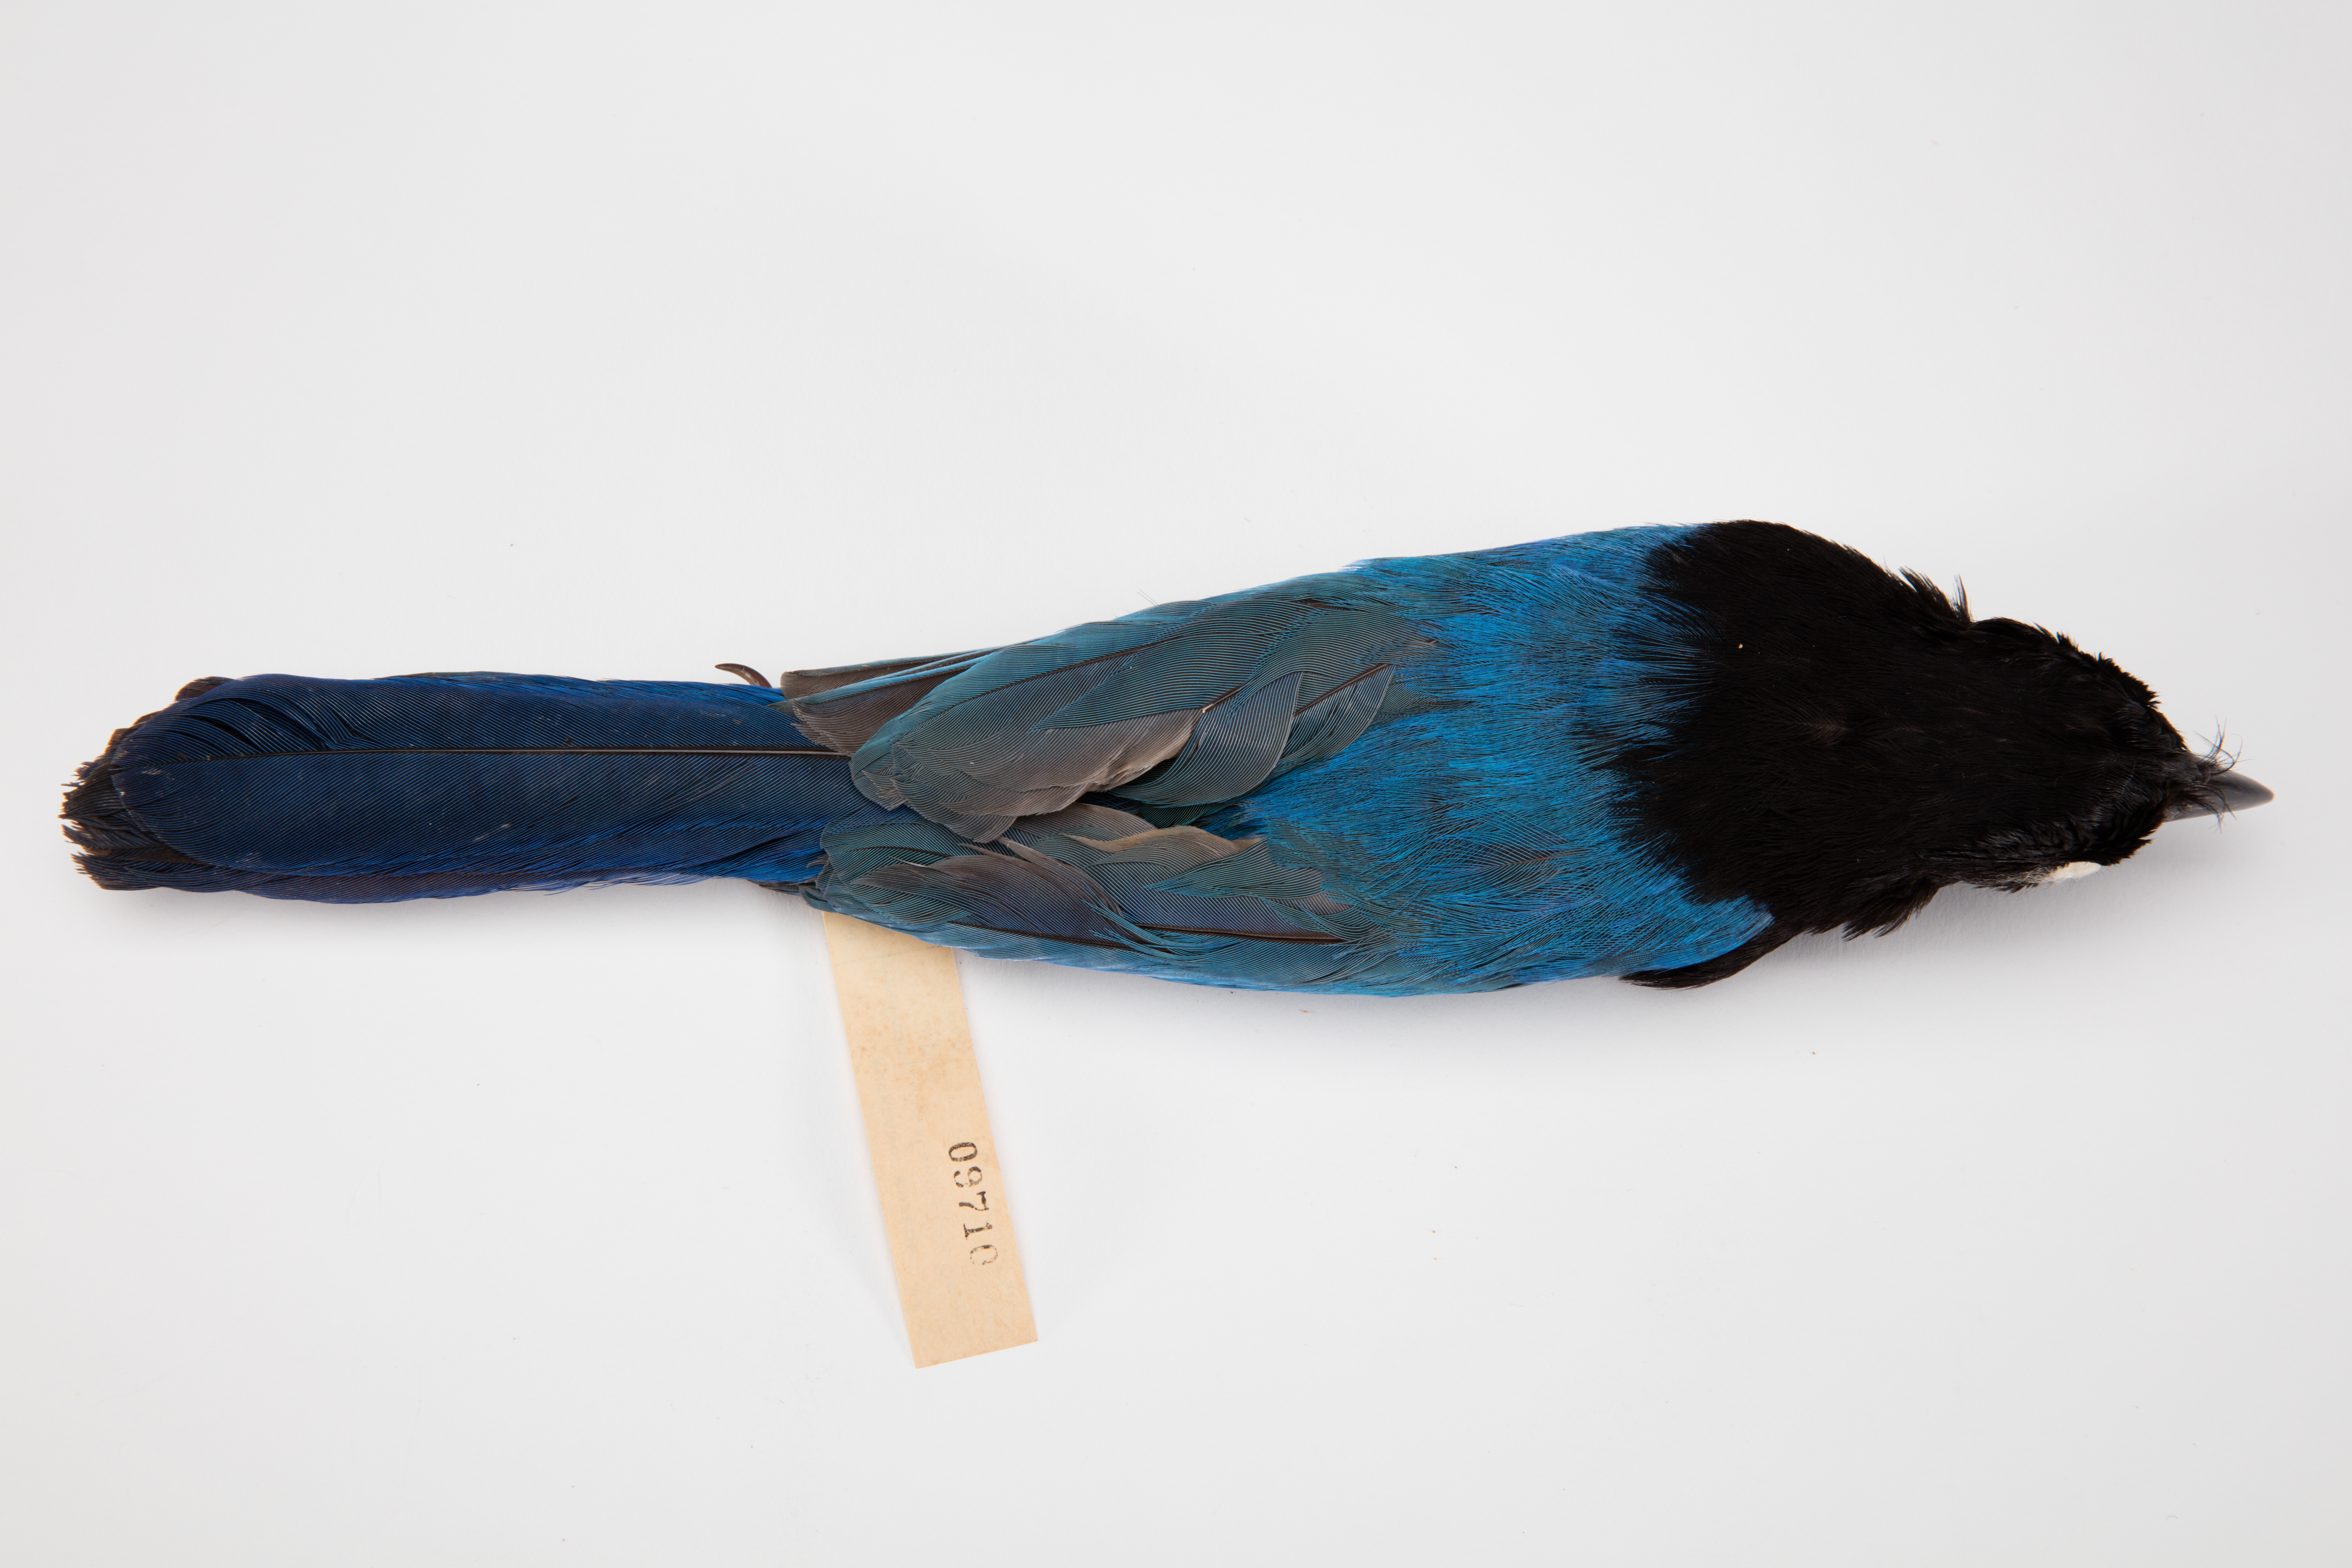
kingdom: Animalia
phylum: Chordata
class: Aves
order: Passeriformes
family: Corvidae
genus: Cyanocorax
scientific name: Cyanocorax
